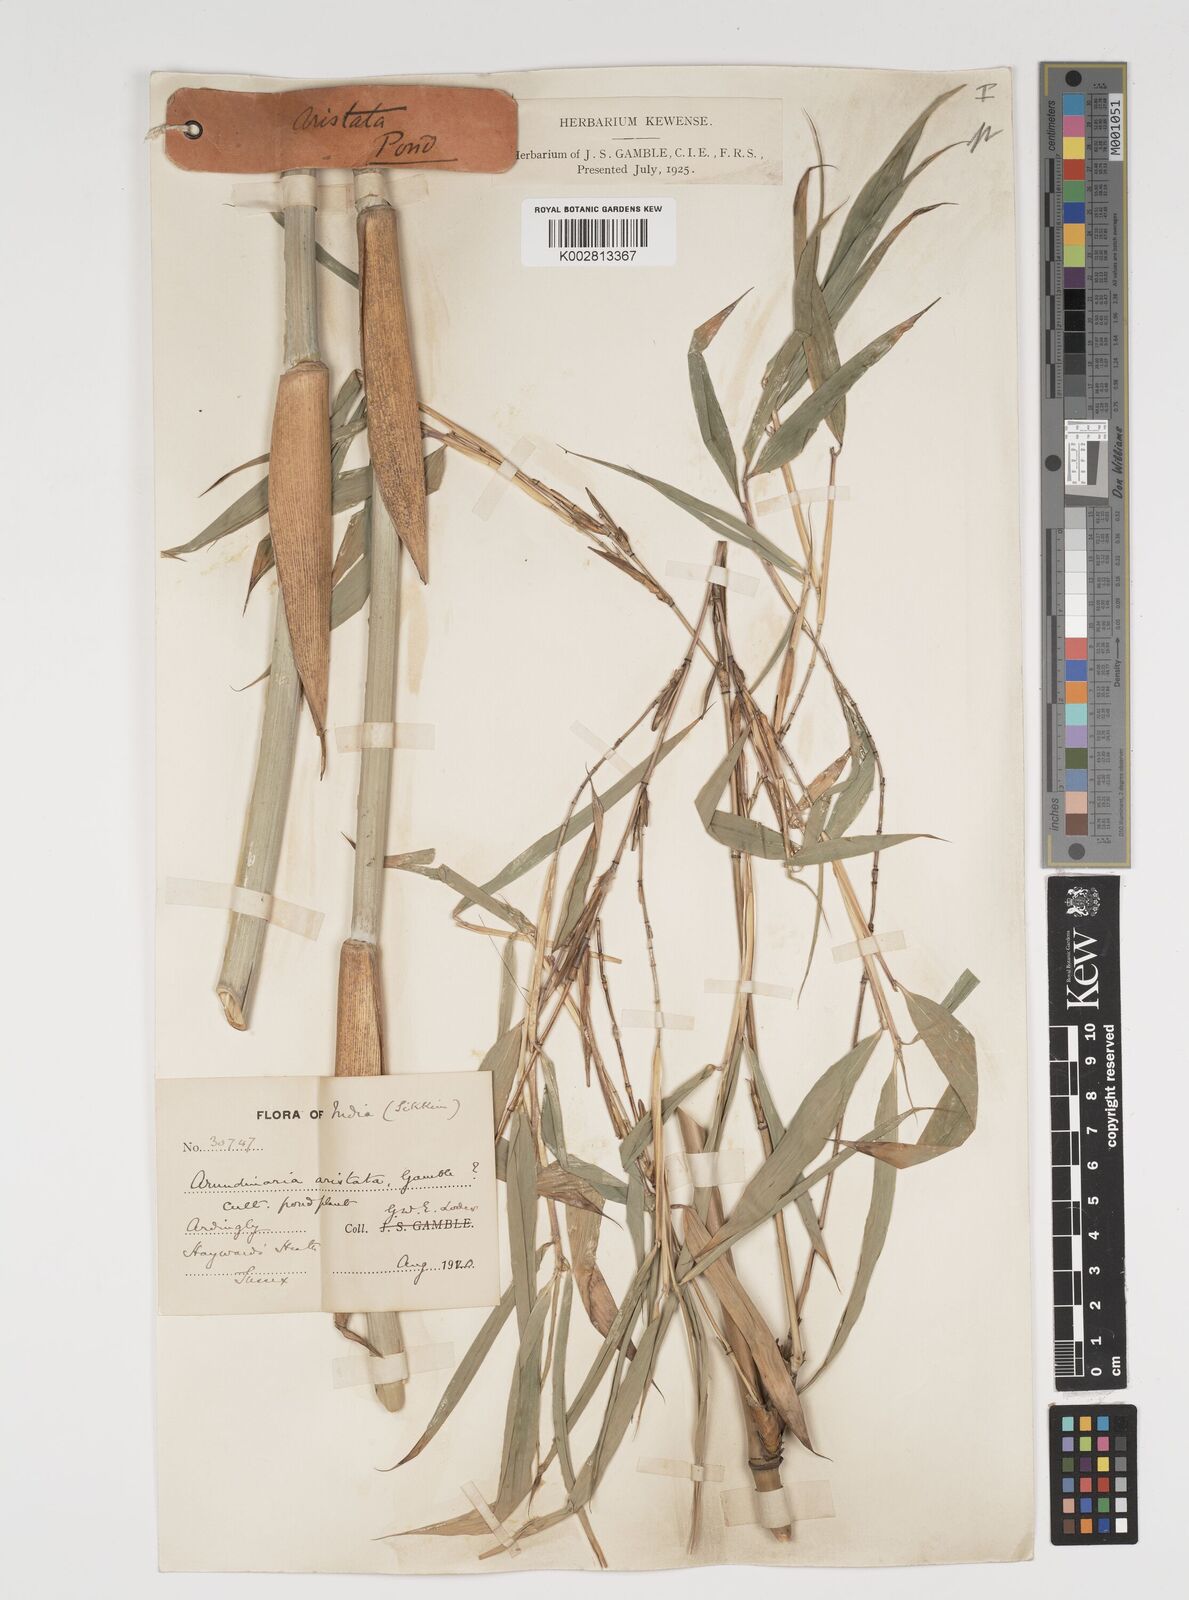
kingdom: Plantae
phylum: Tracheophyta
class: Liliopsida
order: Poales
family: Poaceae
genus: Thamnocalamus
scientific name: Thamnocalamus spathiflorus
